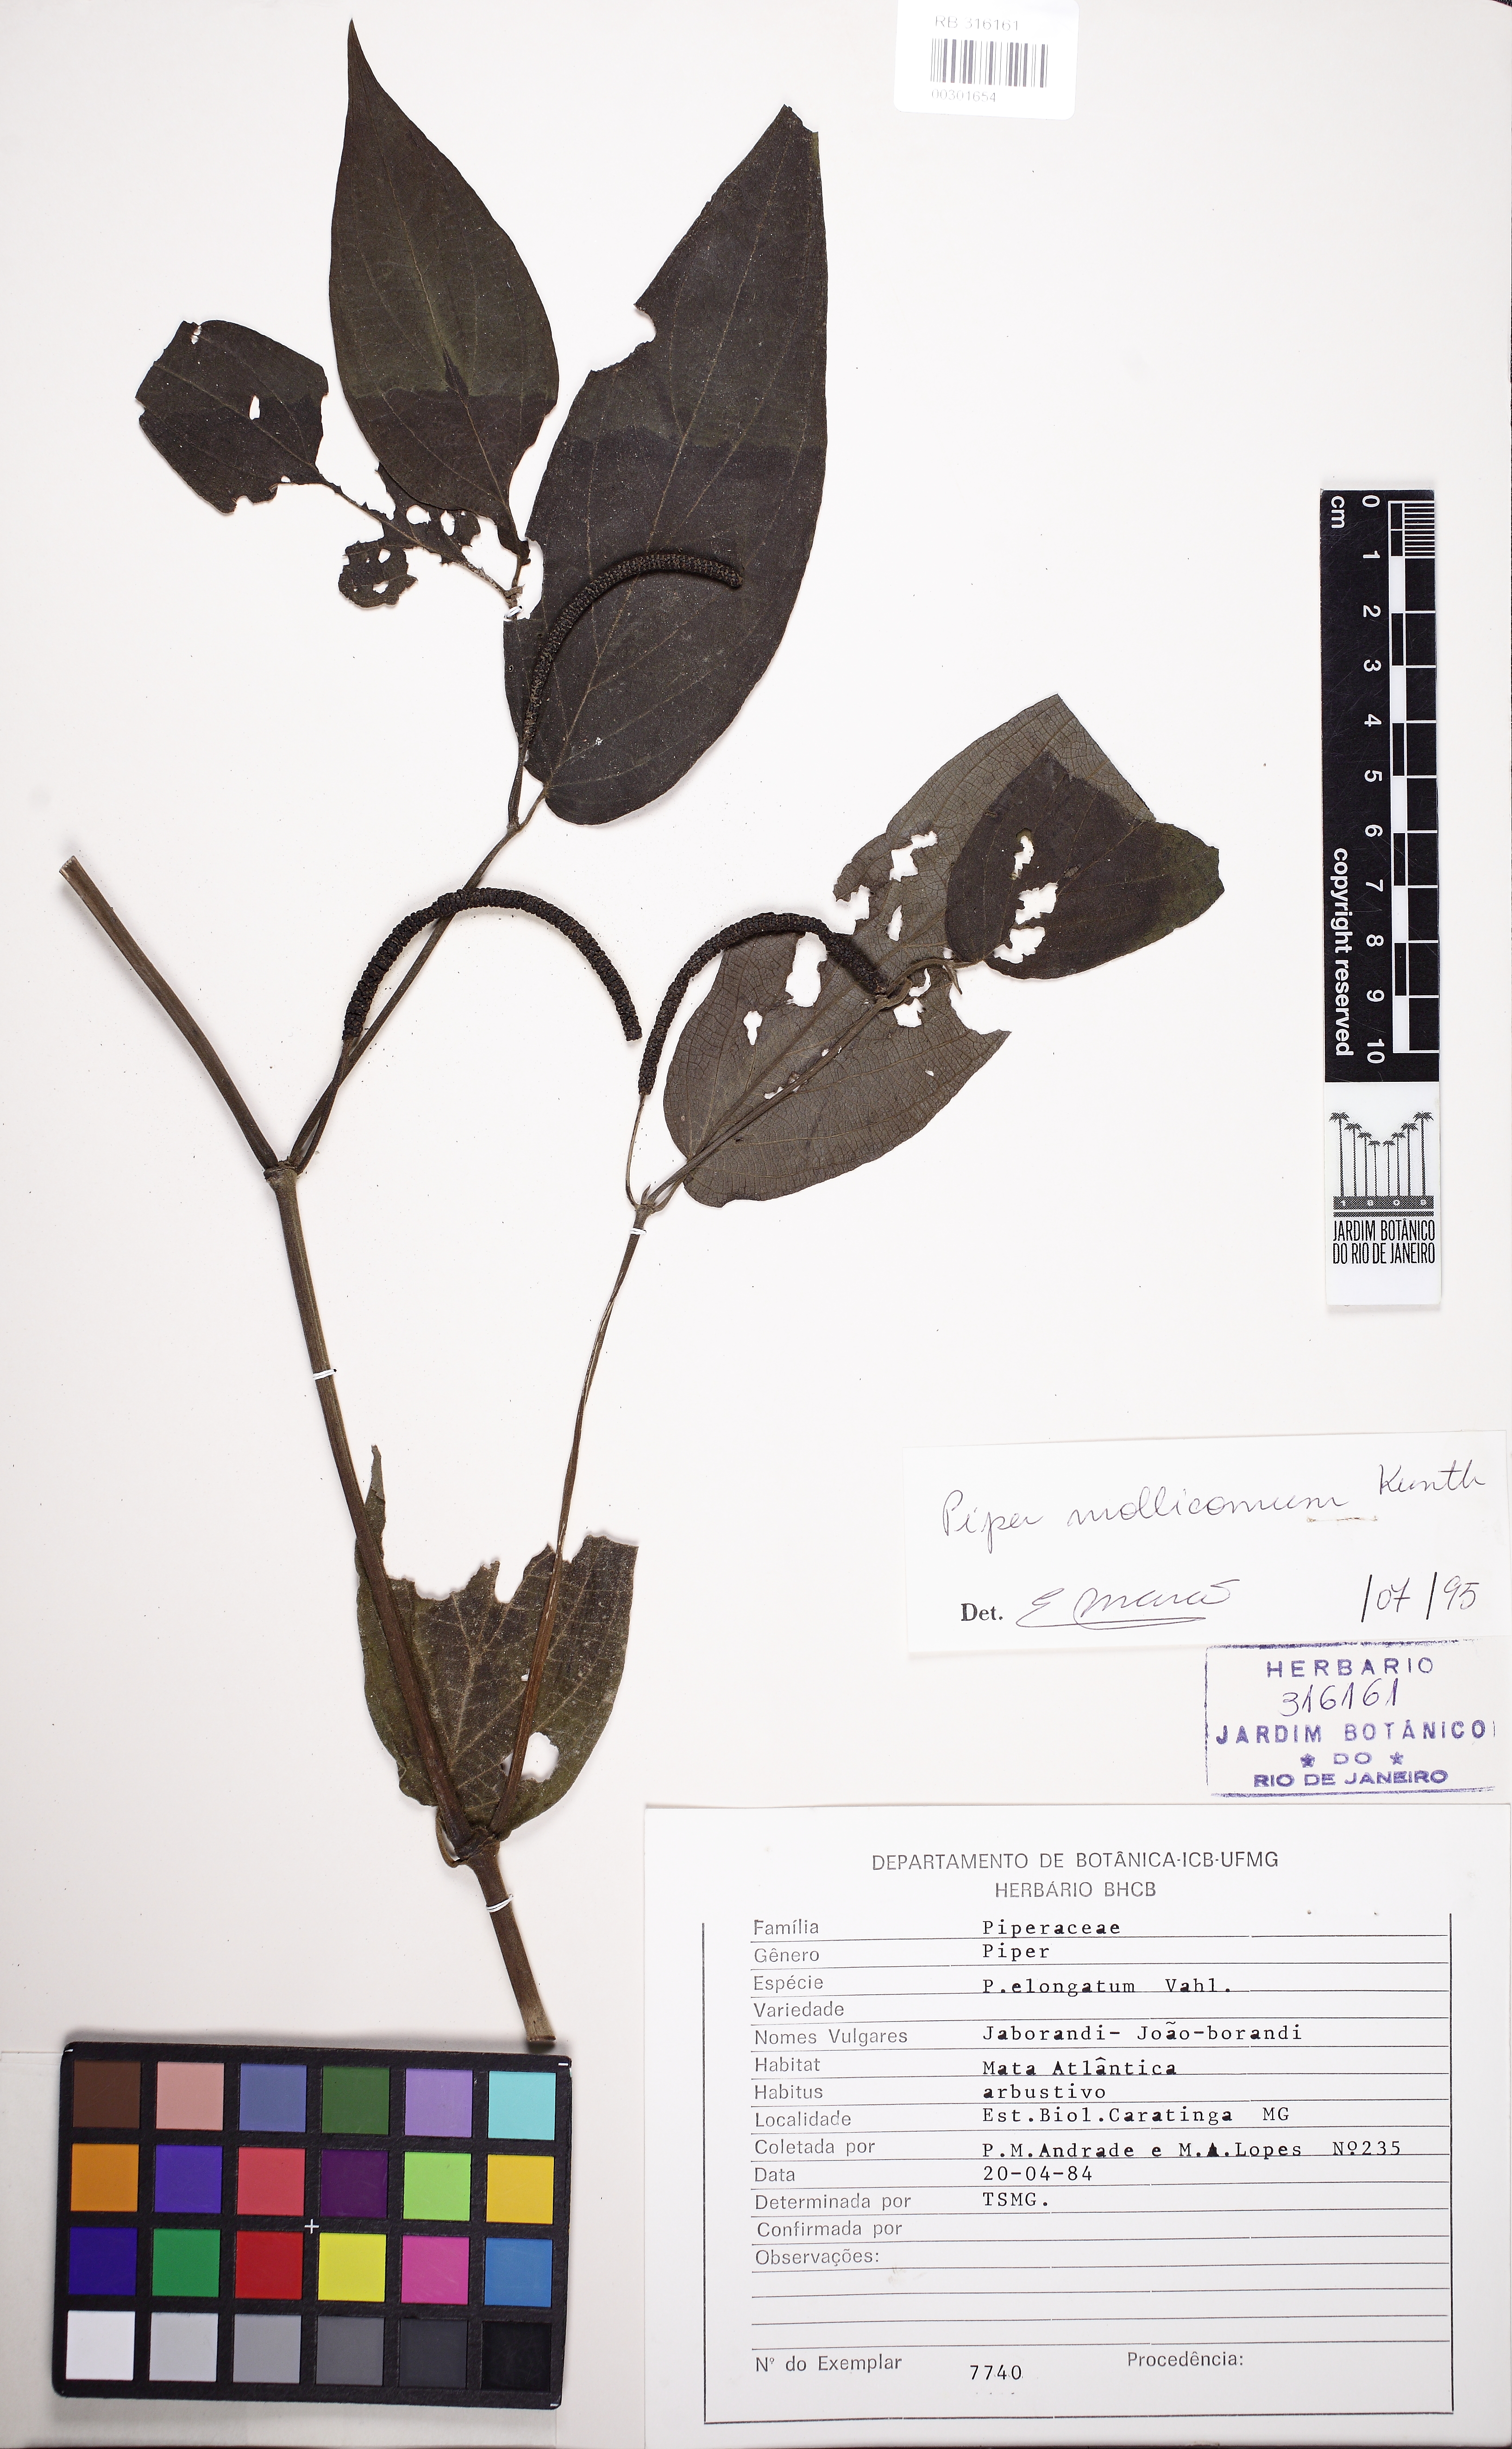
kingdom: Plantae
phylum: Tracheophyta
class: Magnoliopsida
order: Piperales
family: Piperaceae
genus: Piper
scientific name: Piper mollicomum
